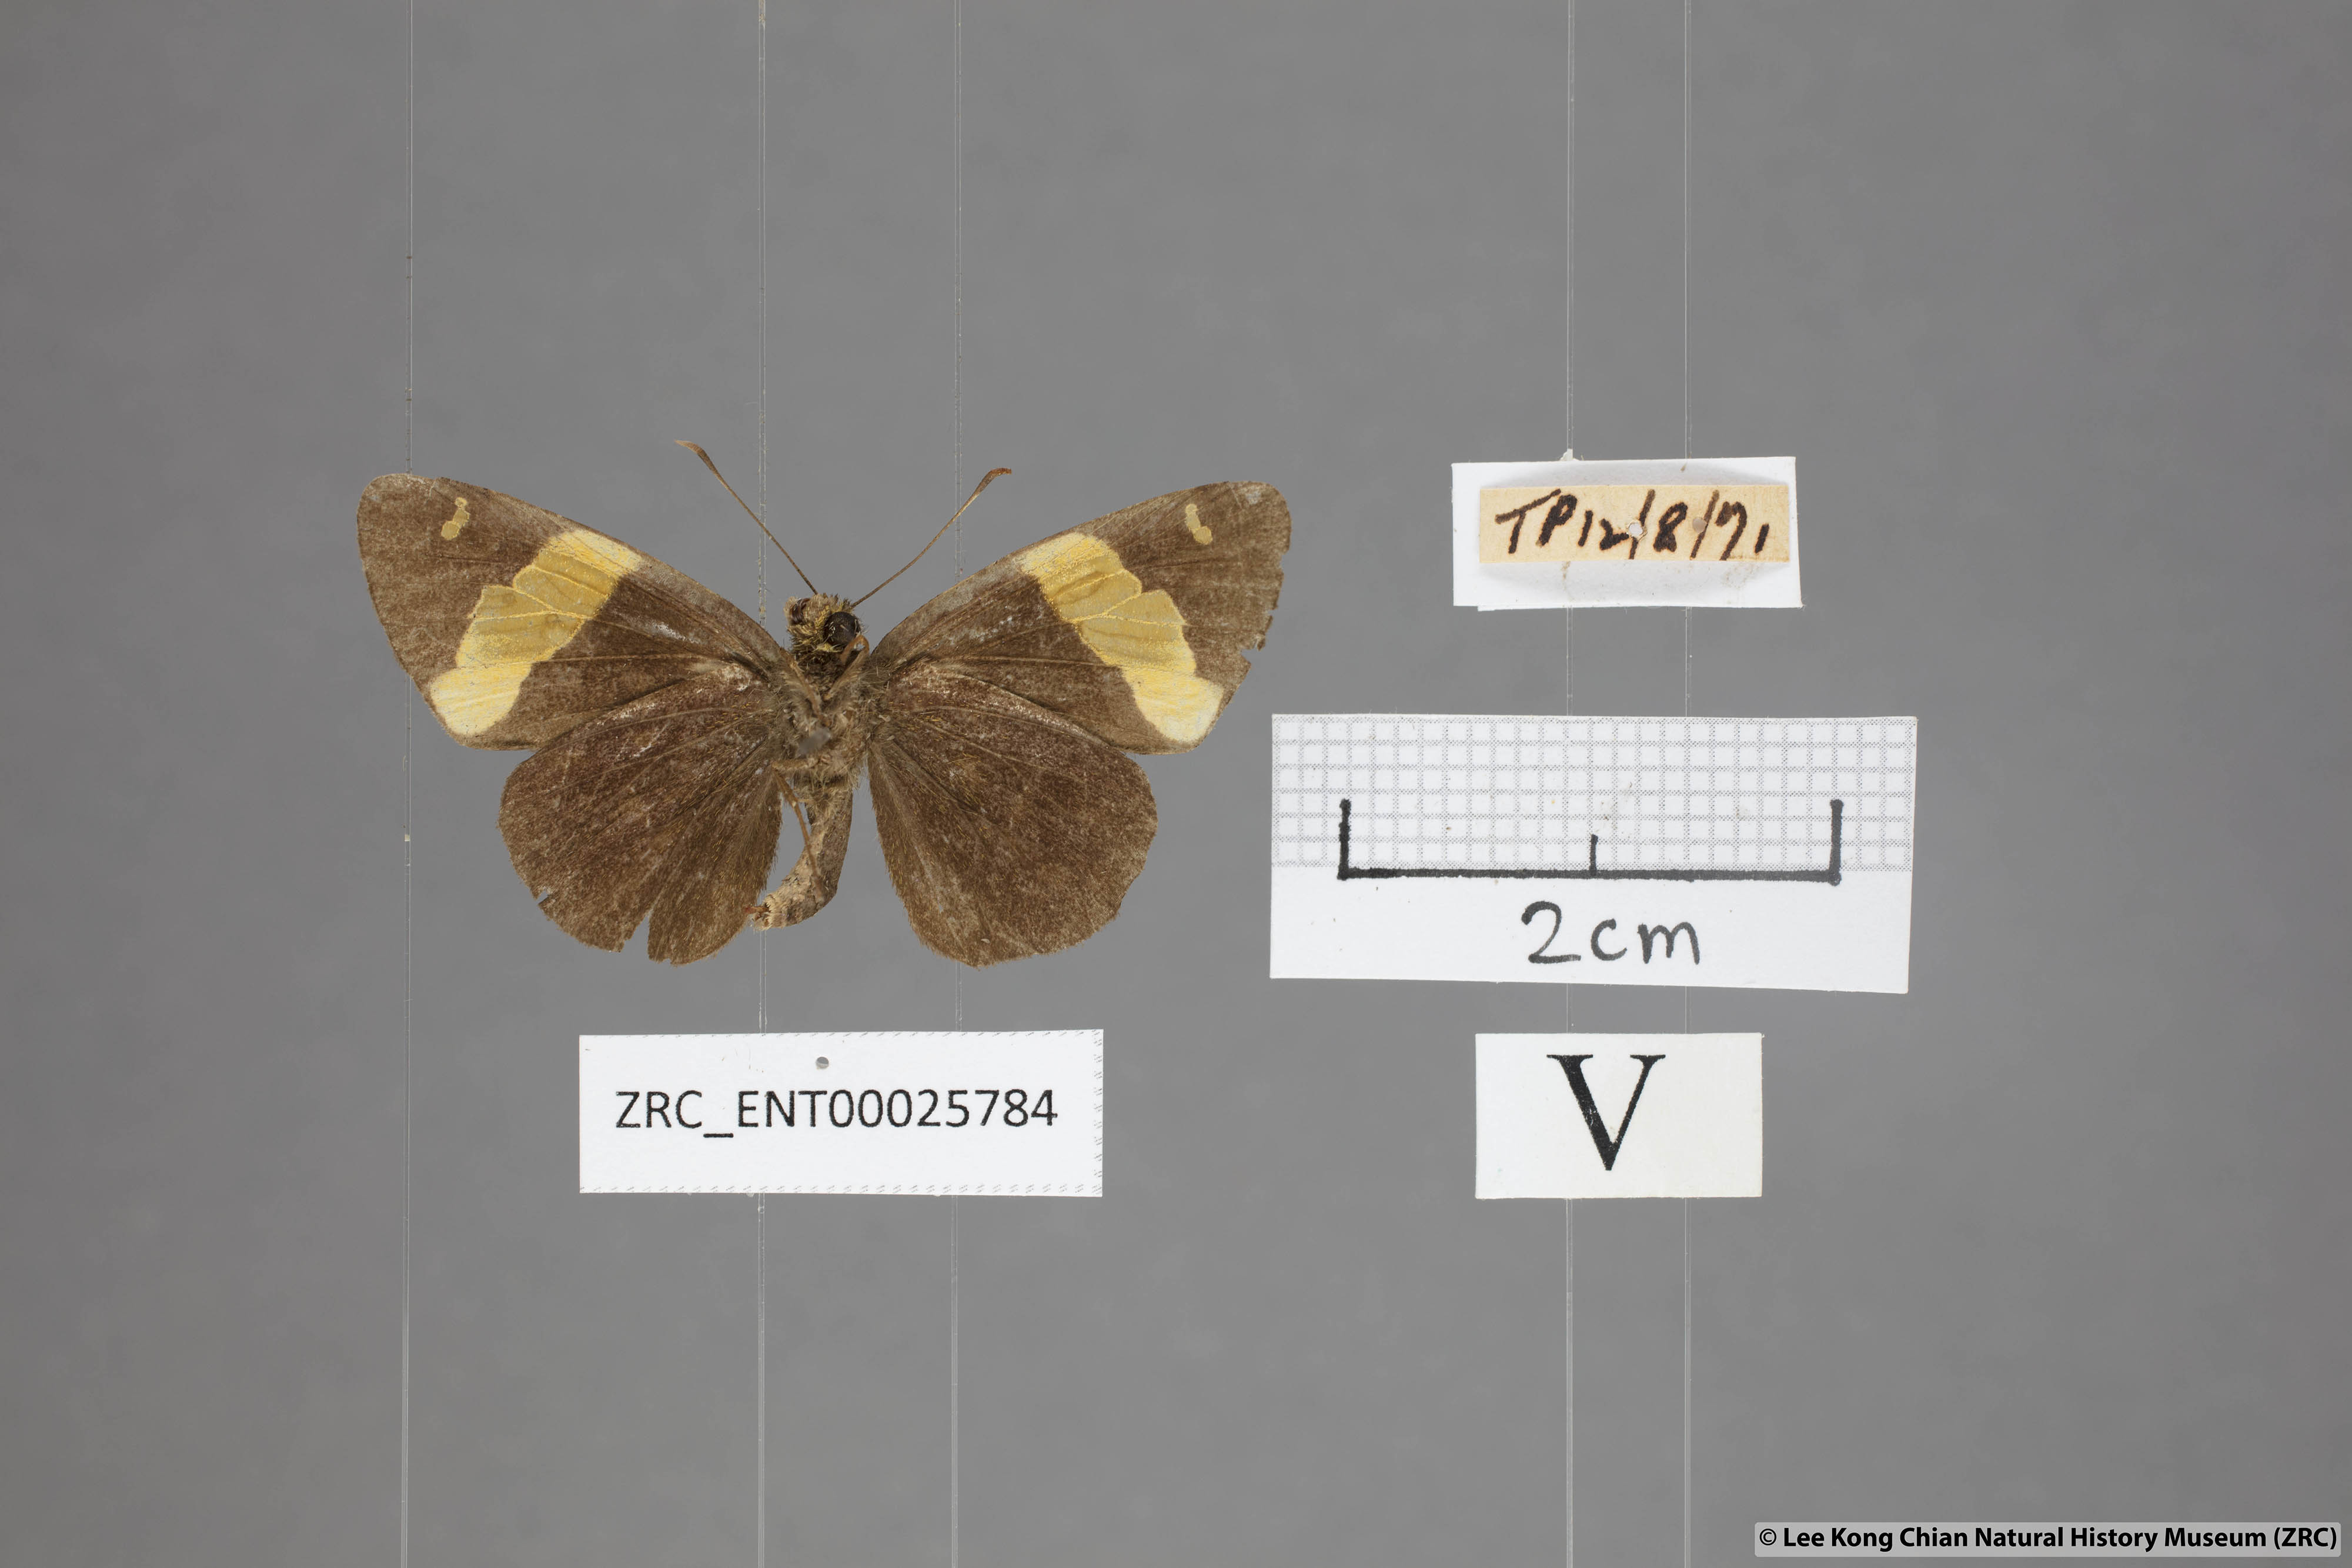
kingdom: Animalia
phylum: Arthropoda
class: Insecta
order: Lepidoptera
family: Hesperiidae
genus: Celaenorrhinus
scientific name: Celaenorrhinus aurivittata
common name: Dark yellow-banded flat
